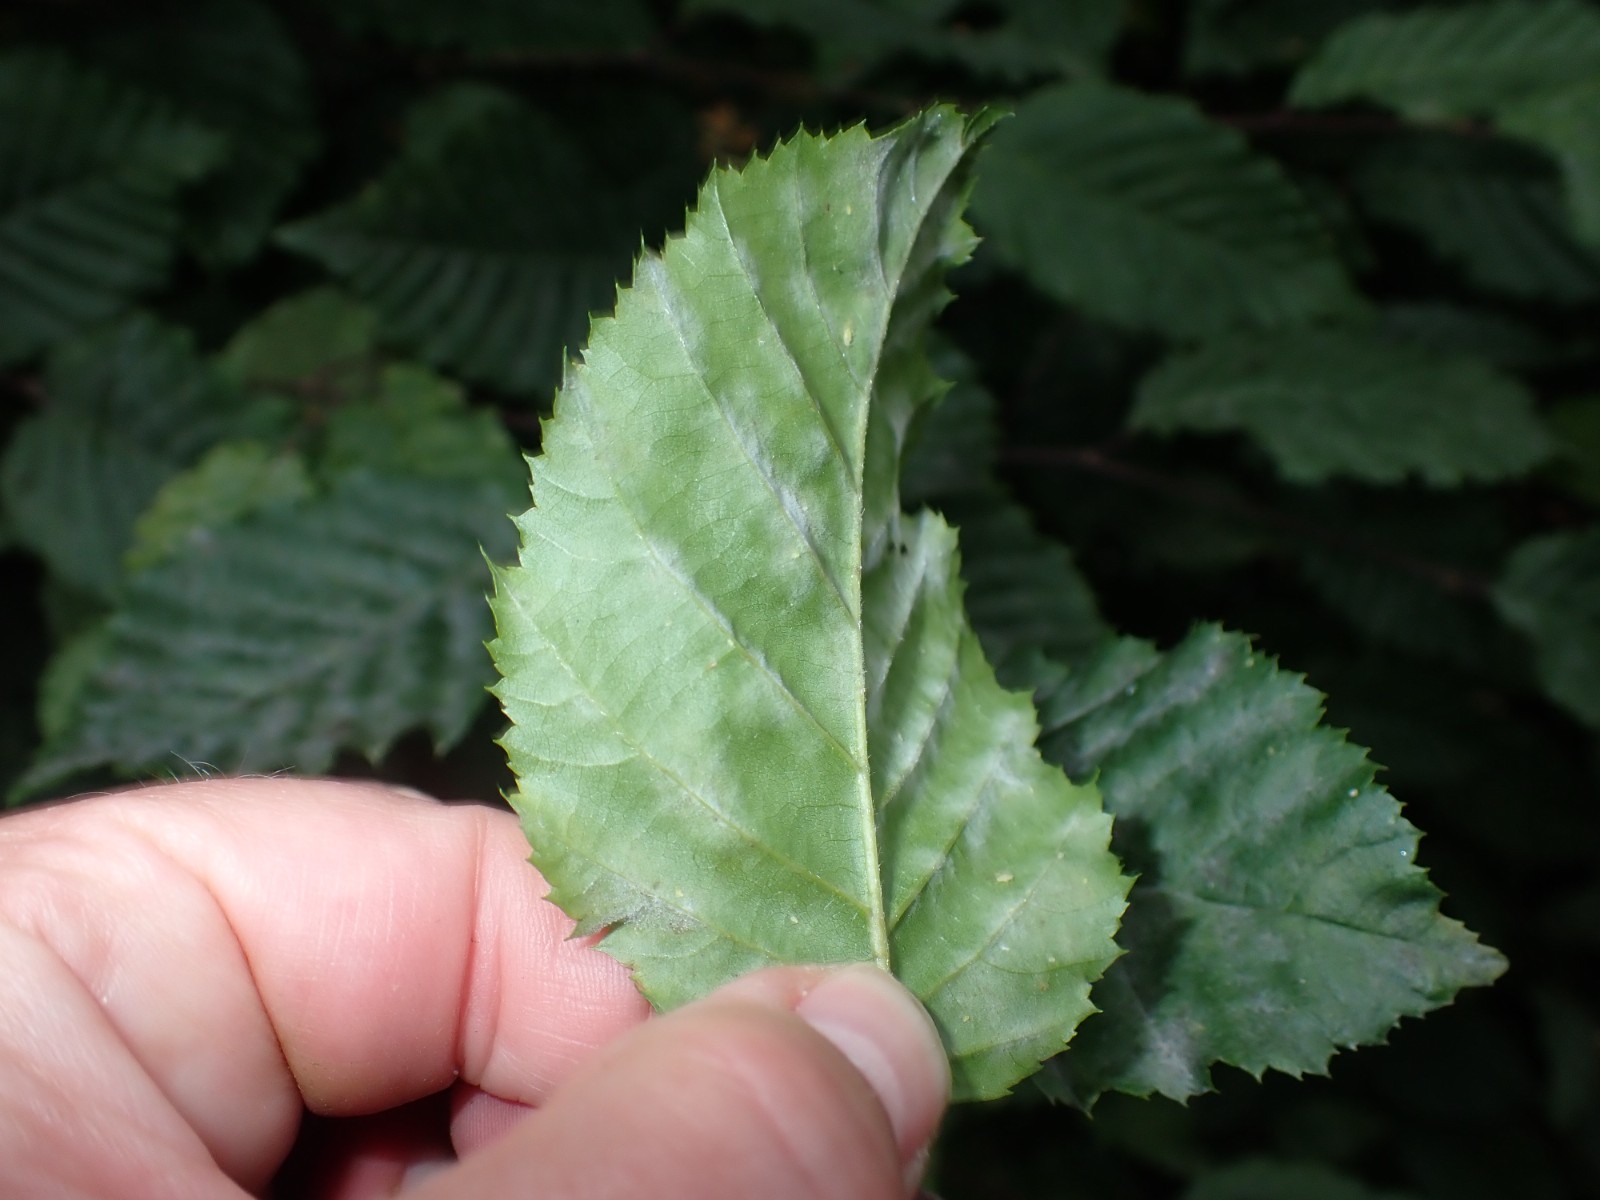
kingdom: Fungi
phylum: Ascomycota
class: Leotiomycetes
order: Helotiales
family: Erysiphaceae
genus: Erysiphe
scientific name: Erysiphe arcuata
